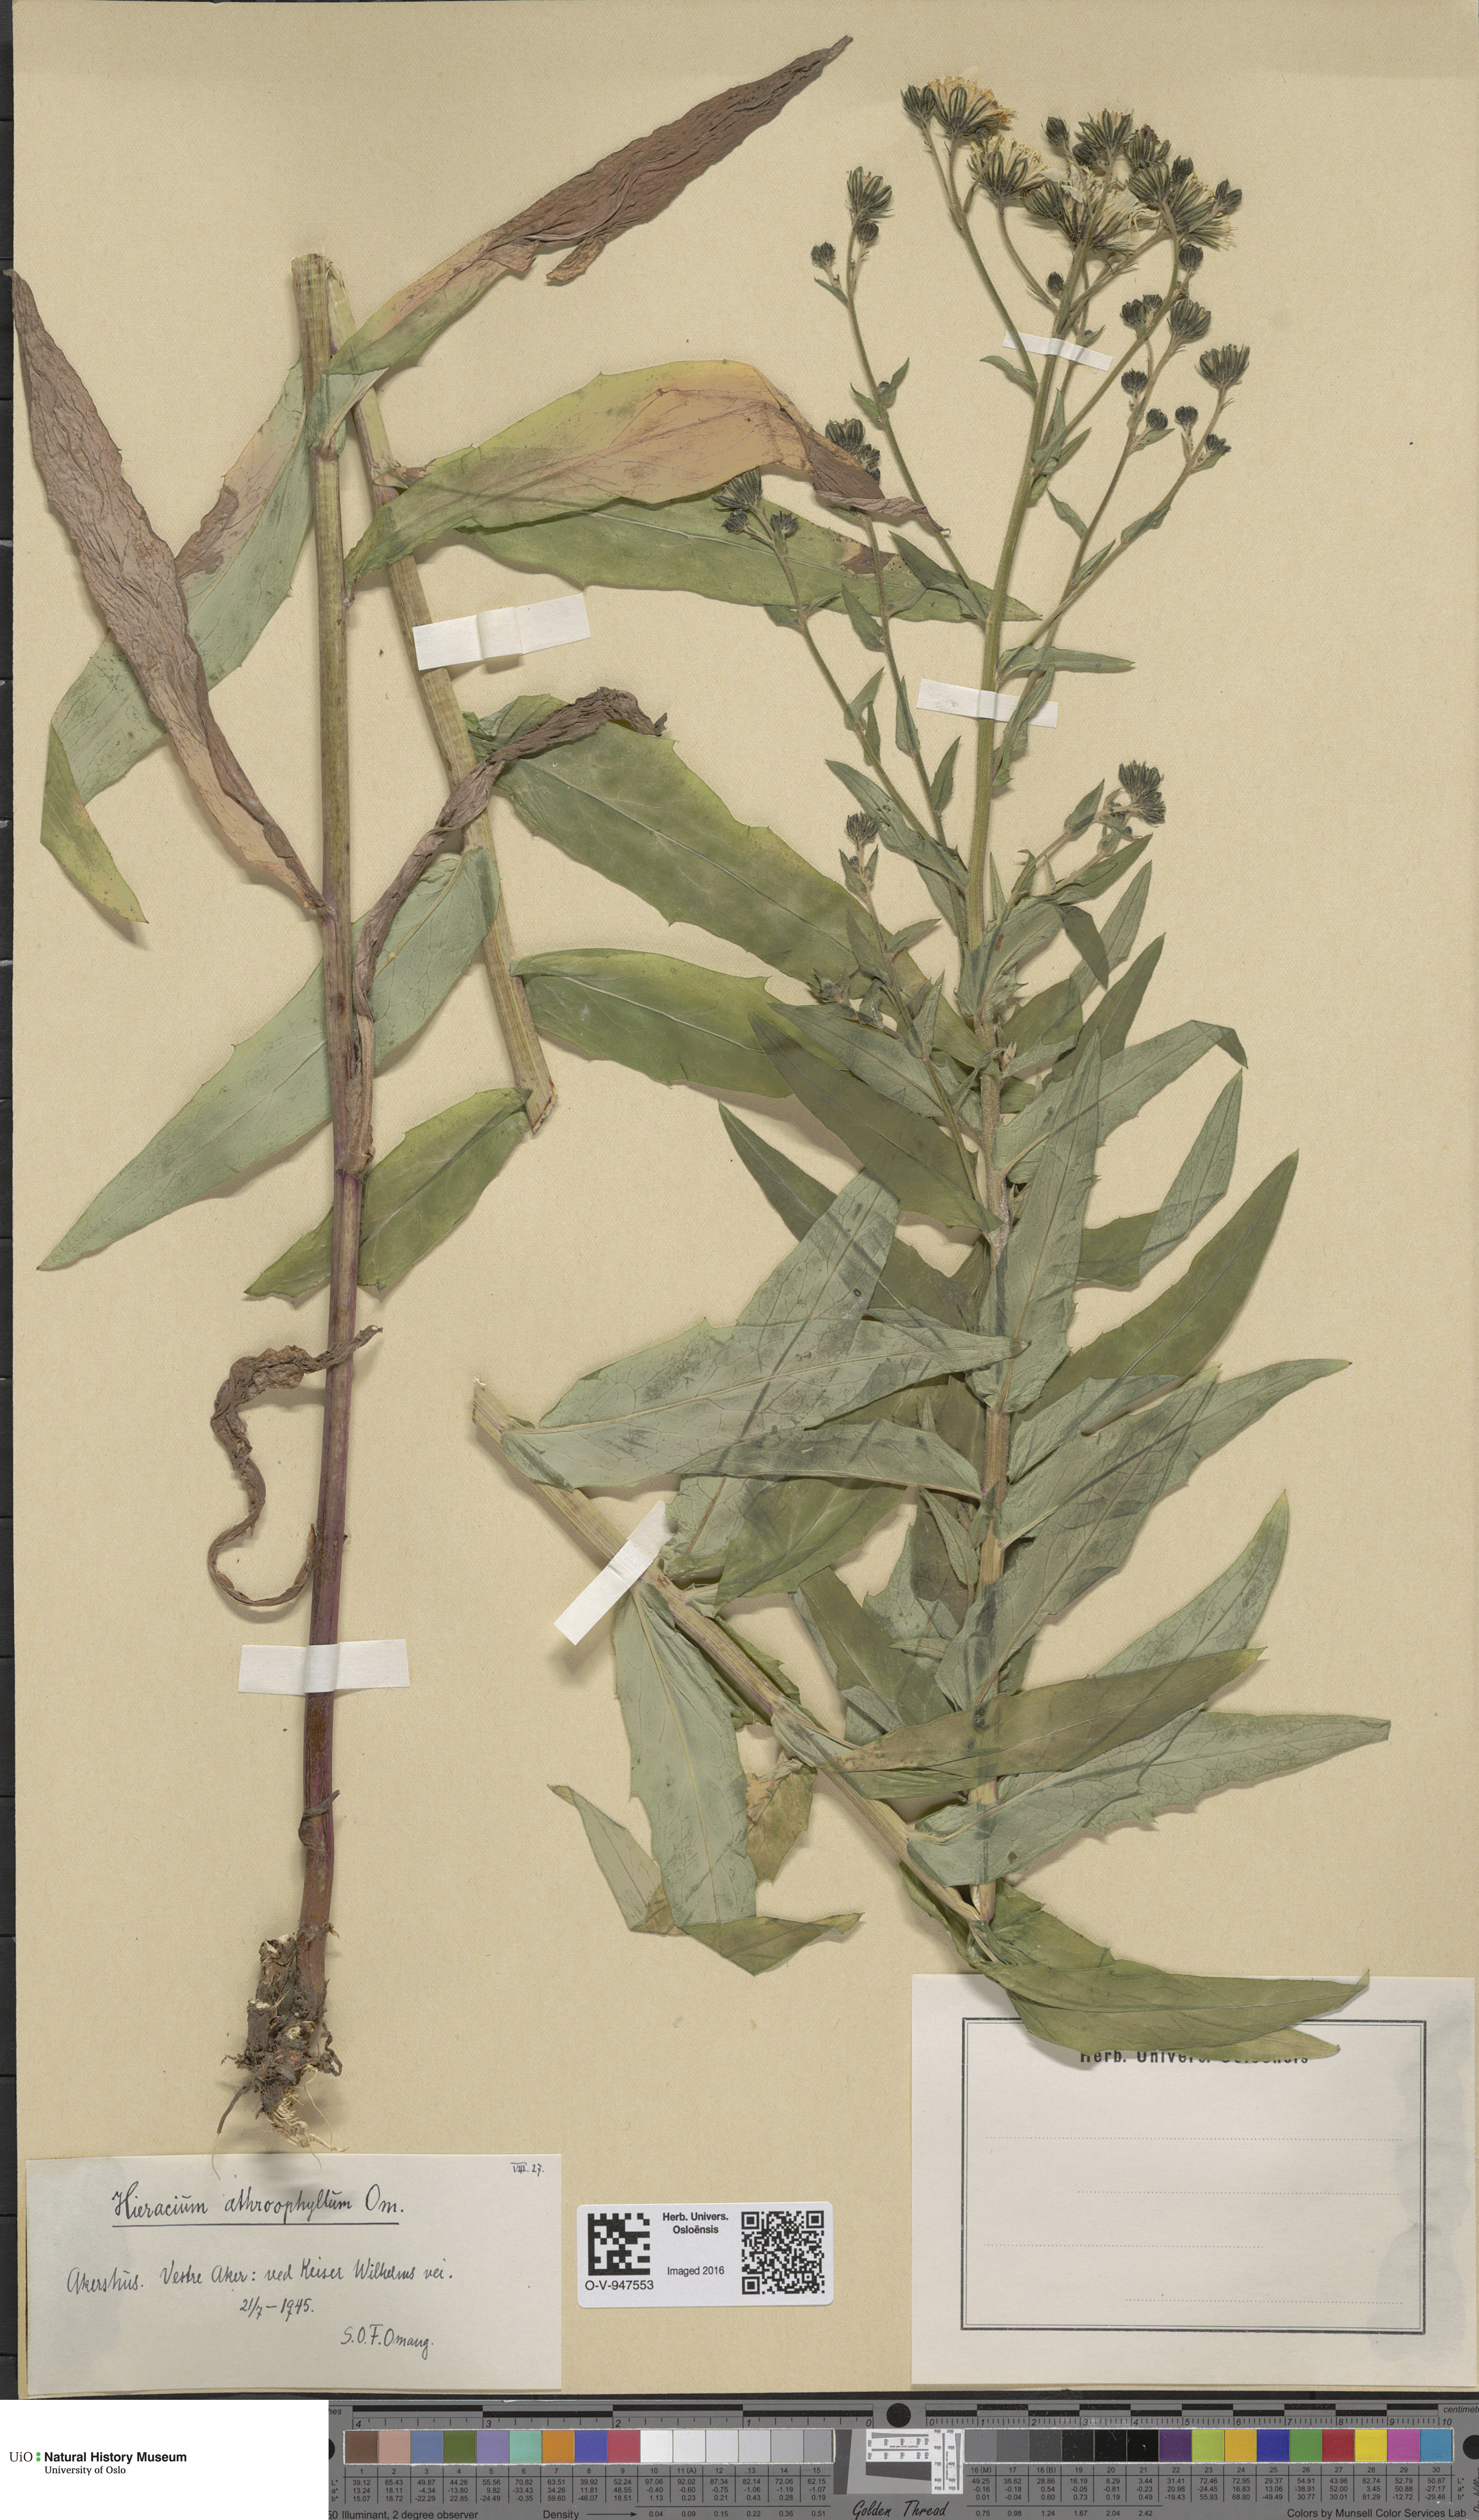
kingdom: Plantae
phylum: Tracheophyta
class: Magnoliopsida
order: Asterales
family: Asteraceae
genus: Hieracium
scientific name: Hieracium
